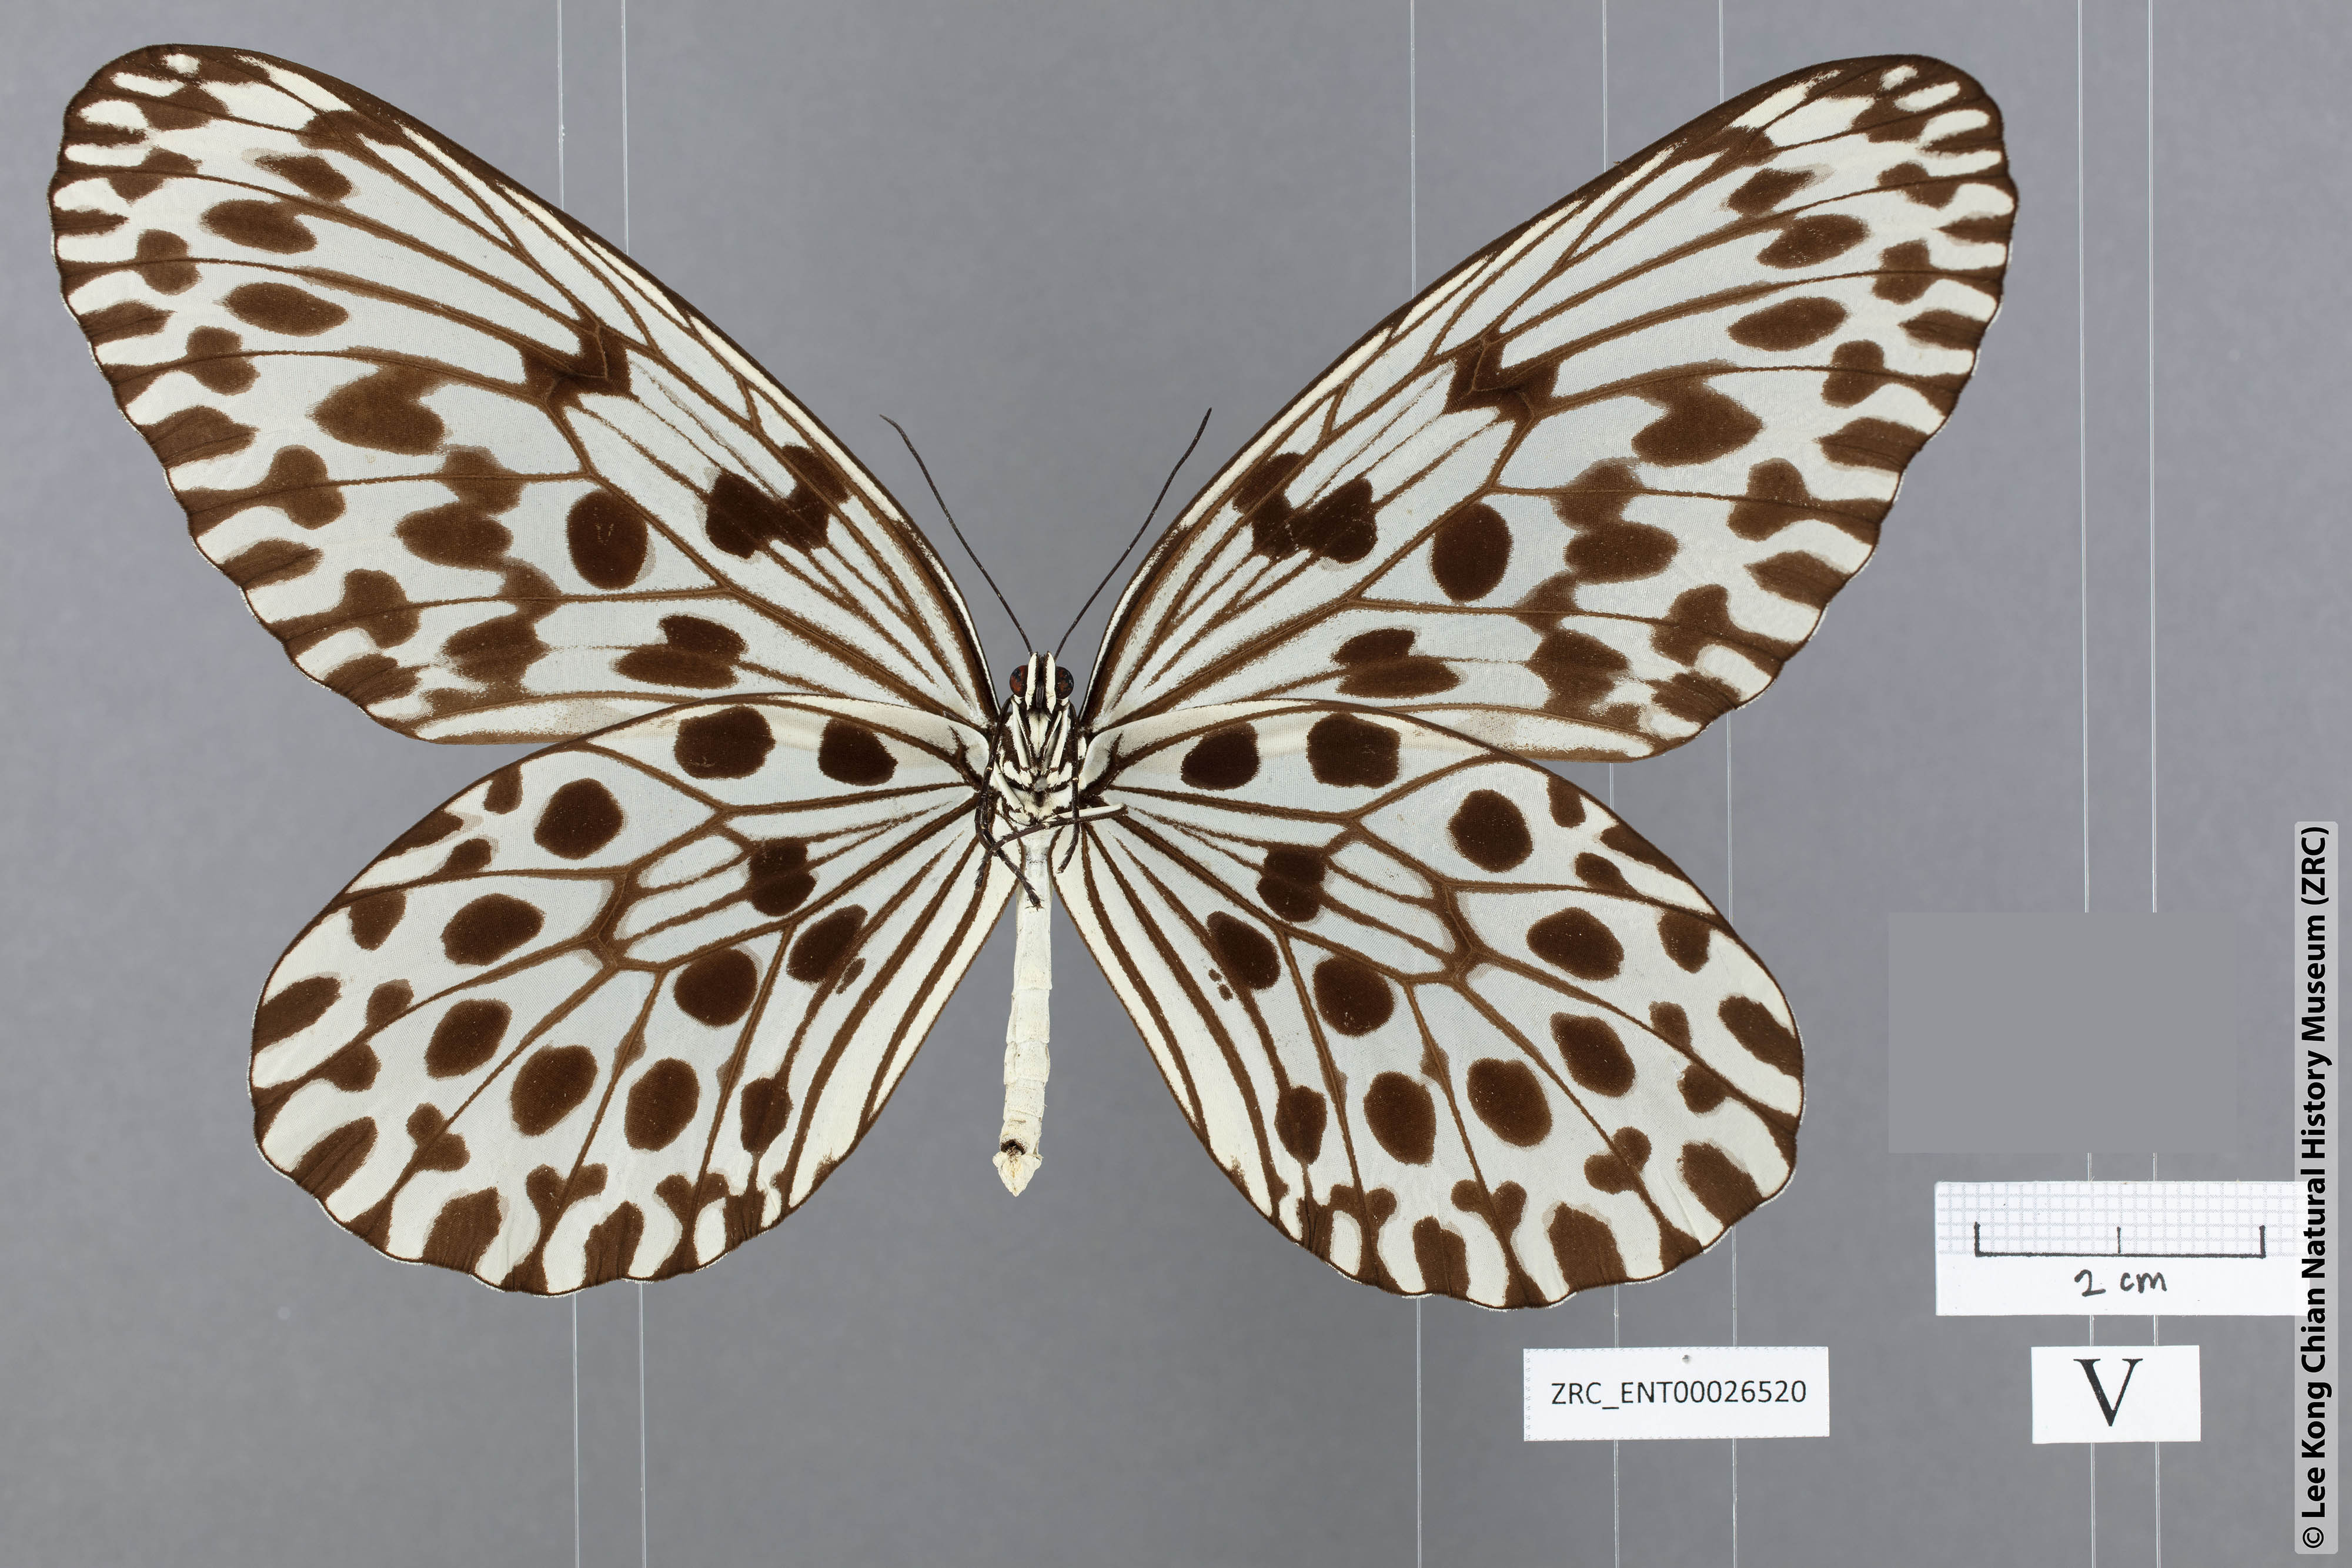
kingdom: Animalia
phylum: Arthropoda
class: Insecta
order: Lepidoptera
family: Nymphalidae
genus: Idea
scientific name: Idea hypermnestra
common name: Malayan tree nymph
